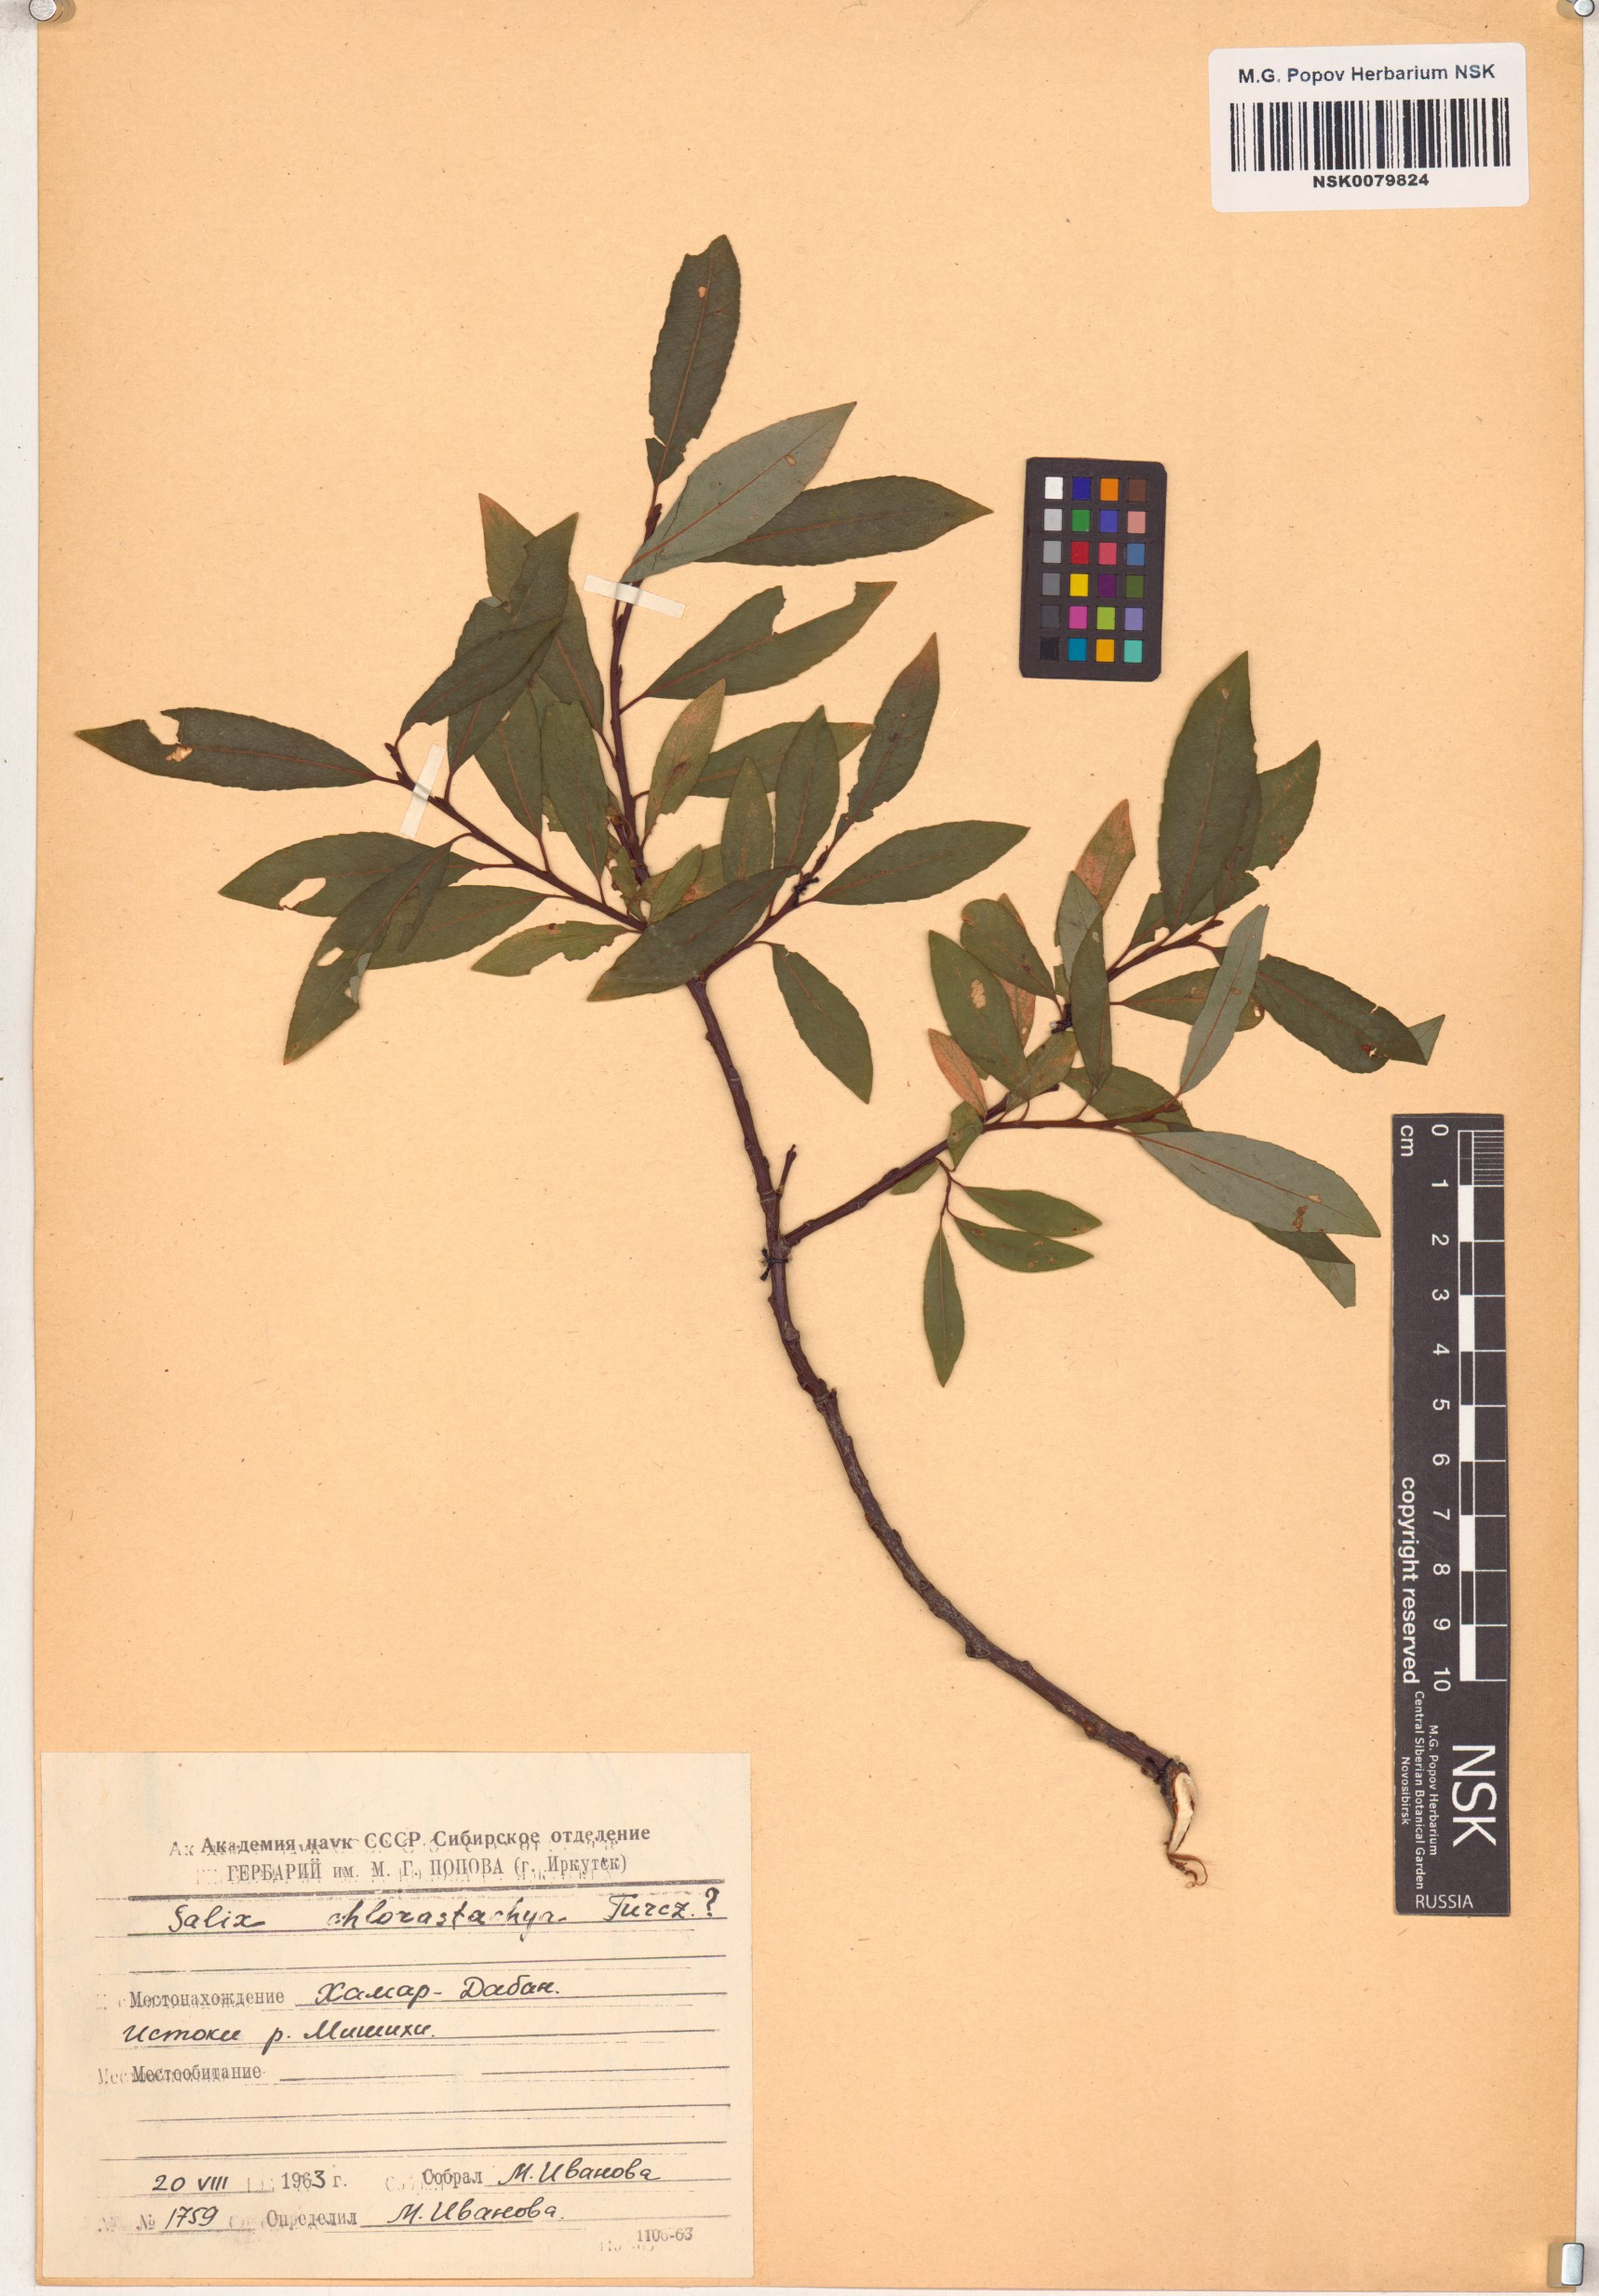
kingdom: Plantae
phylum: Tracheophyta
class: Magnoliopsida
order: Malpighiales
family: Salicaceae
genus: Salix
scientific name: Salix rhamnifolia
